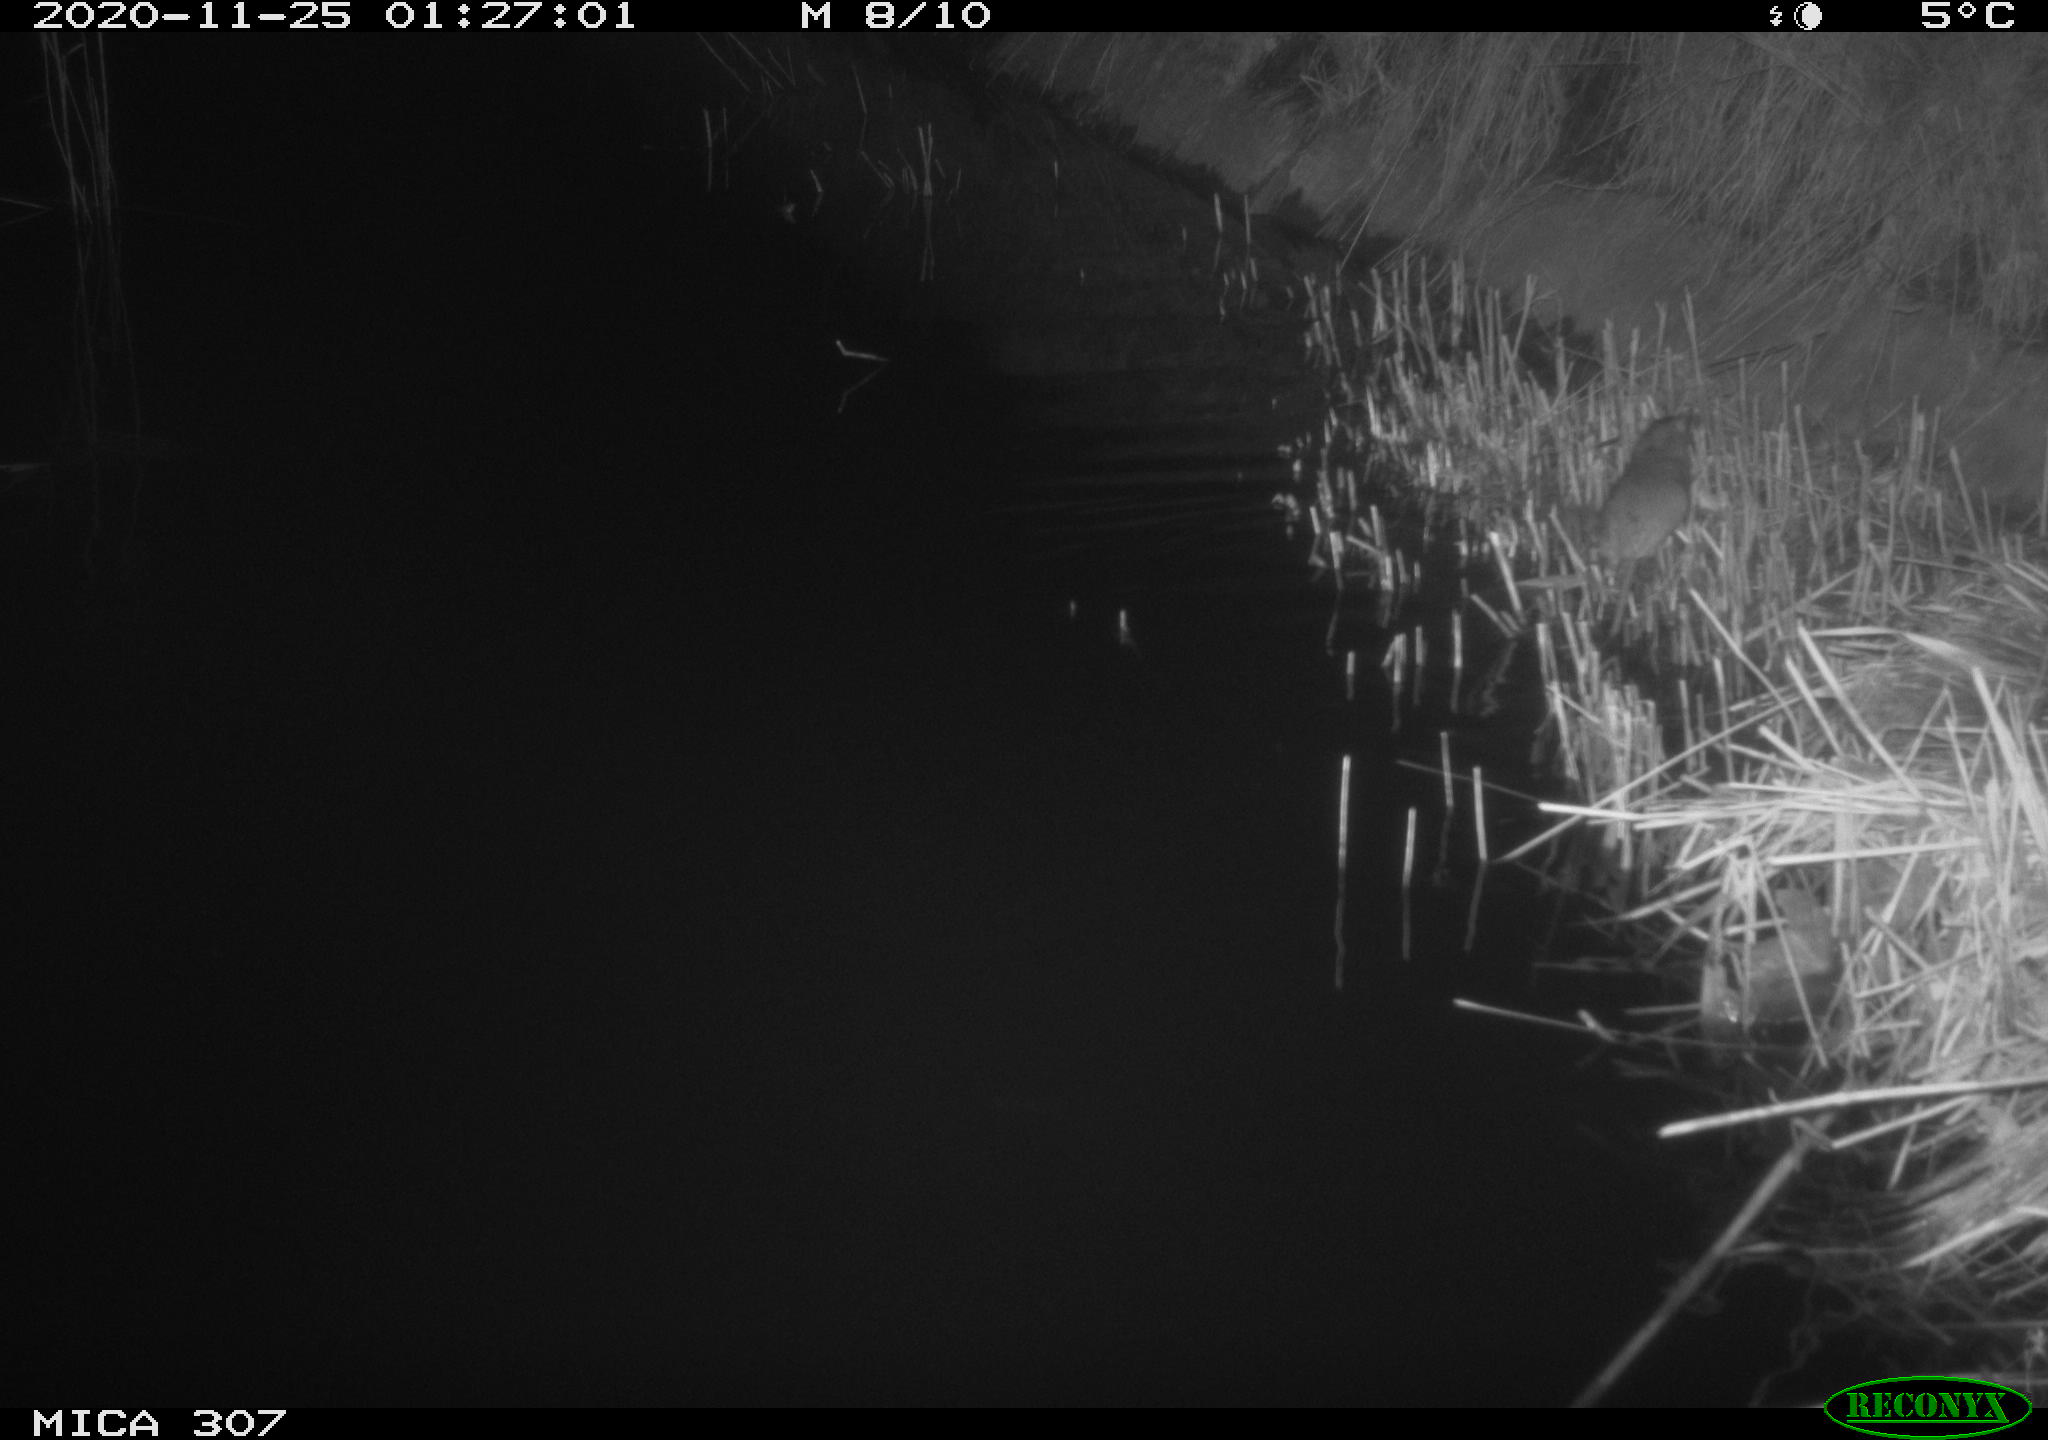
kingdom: Animalia
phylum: Chordata
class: Mammalia
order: Rodentia
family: Muridae
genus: Rattus
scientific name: Rattus norvegicus
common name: Brown rat
